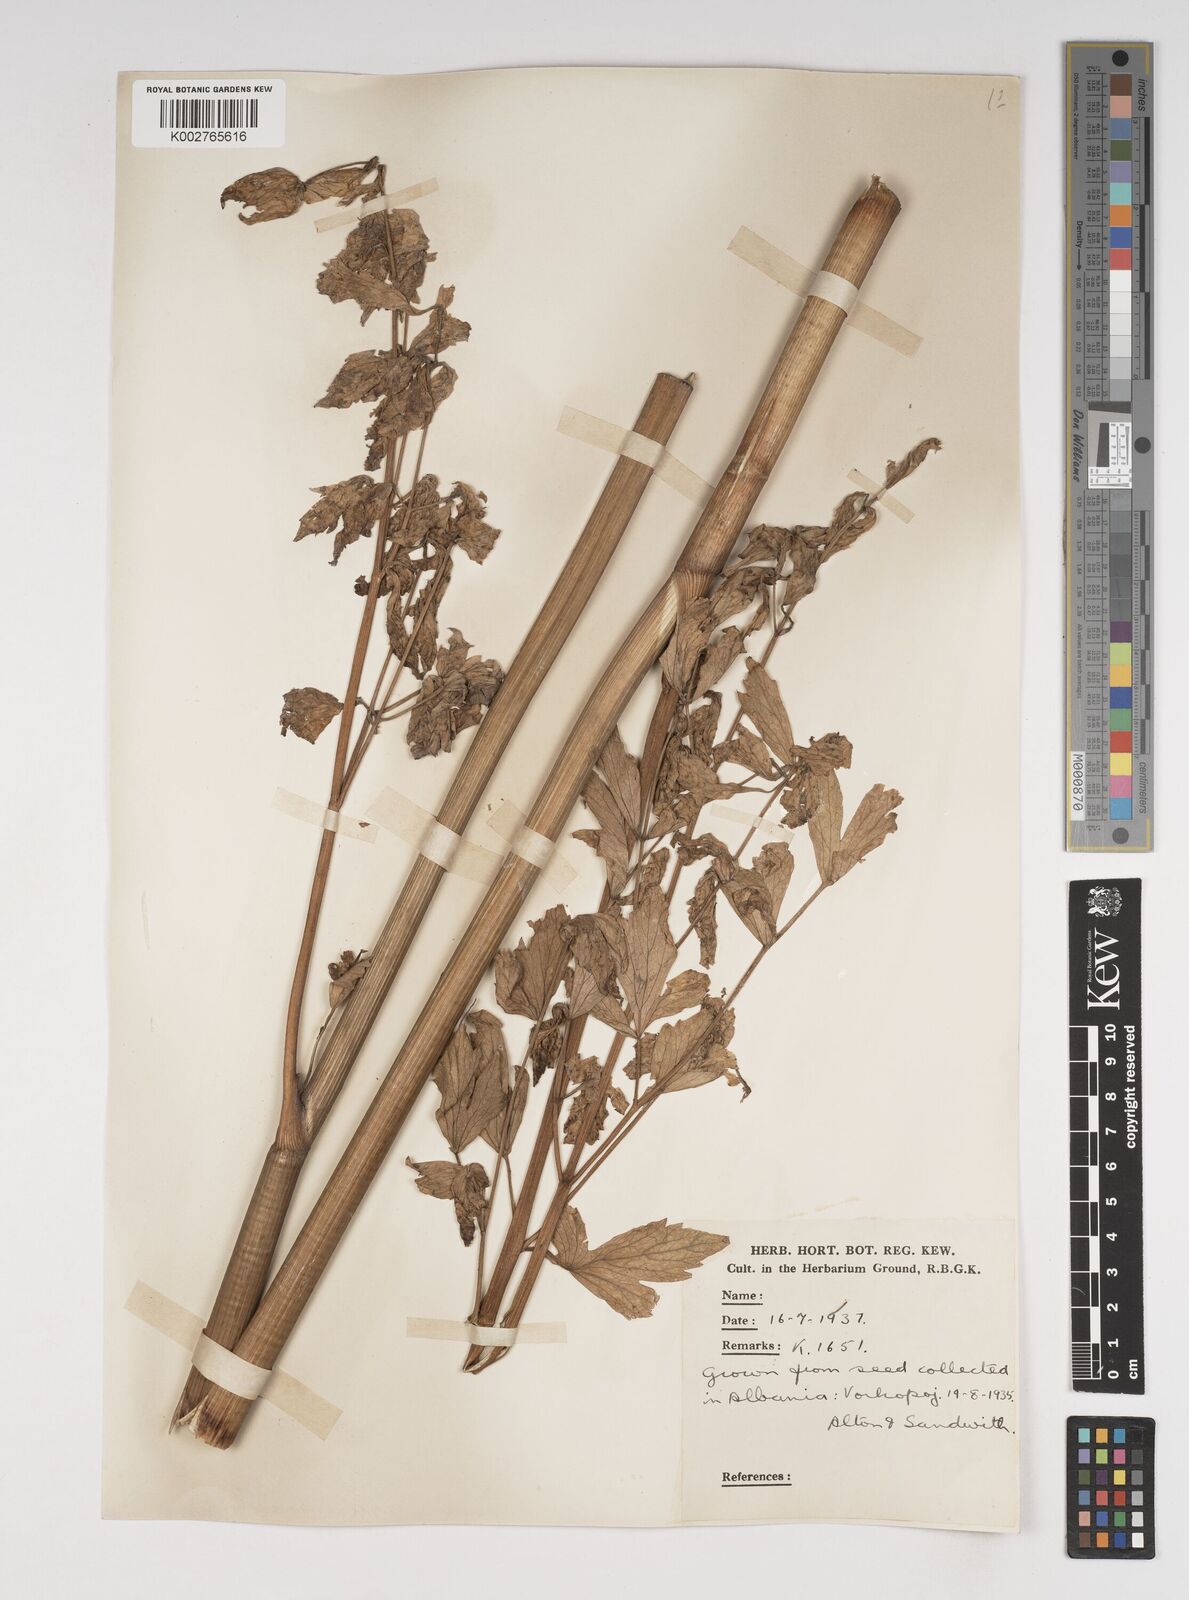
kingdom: Plantae
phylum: Tracheophyta
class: Magnoliopsida
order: Apiales
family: Apiaceae
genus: Levisticum
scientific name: Levisticum officinale
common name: Lovage
